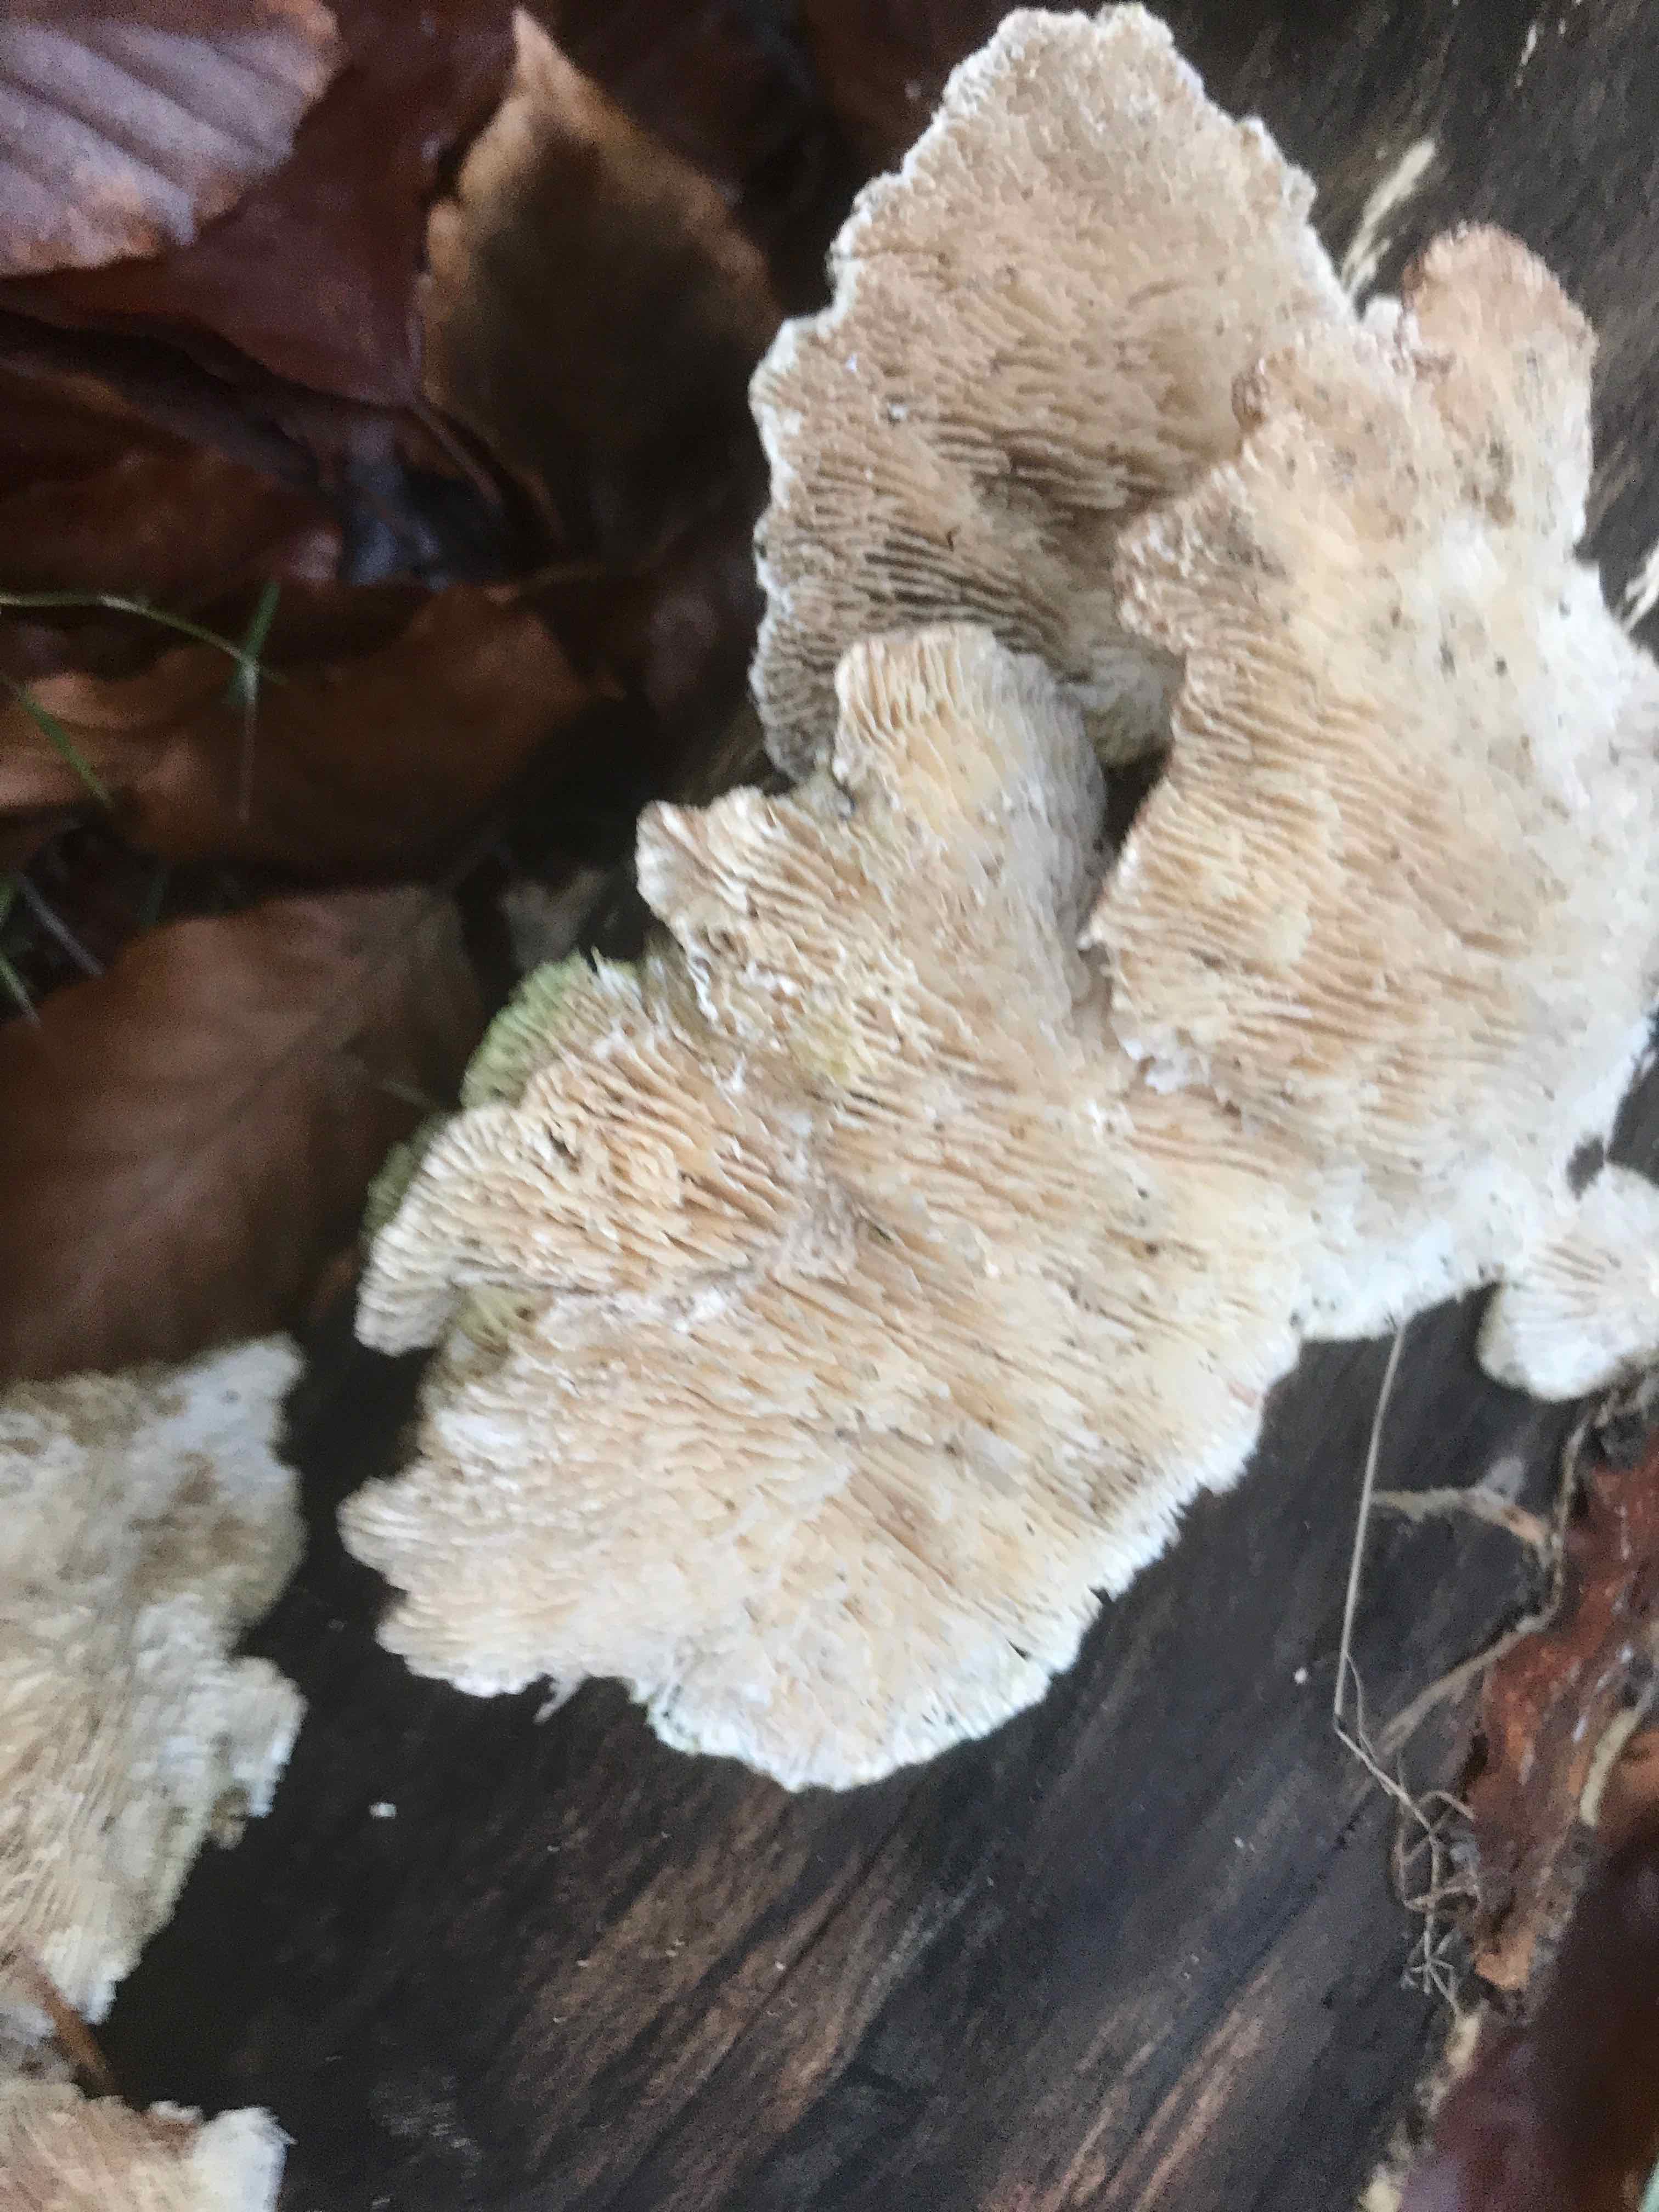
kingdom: Fungi
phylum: Basidiomycota
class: Agaricomycetes
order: Polyporales
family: Polyporaceae
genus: Lenzites
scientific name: Lenzites betulinus
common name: birke-læderporesvamp
